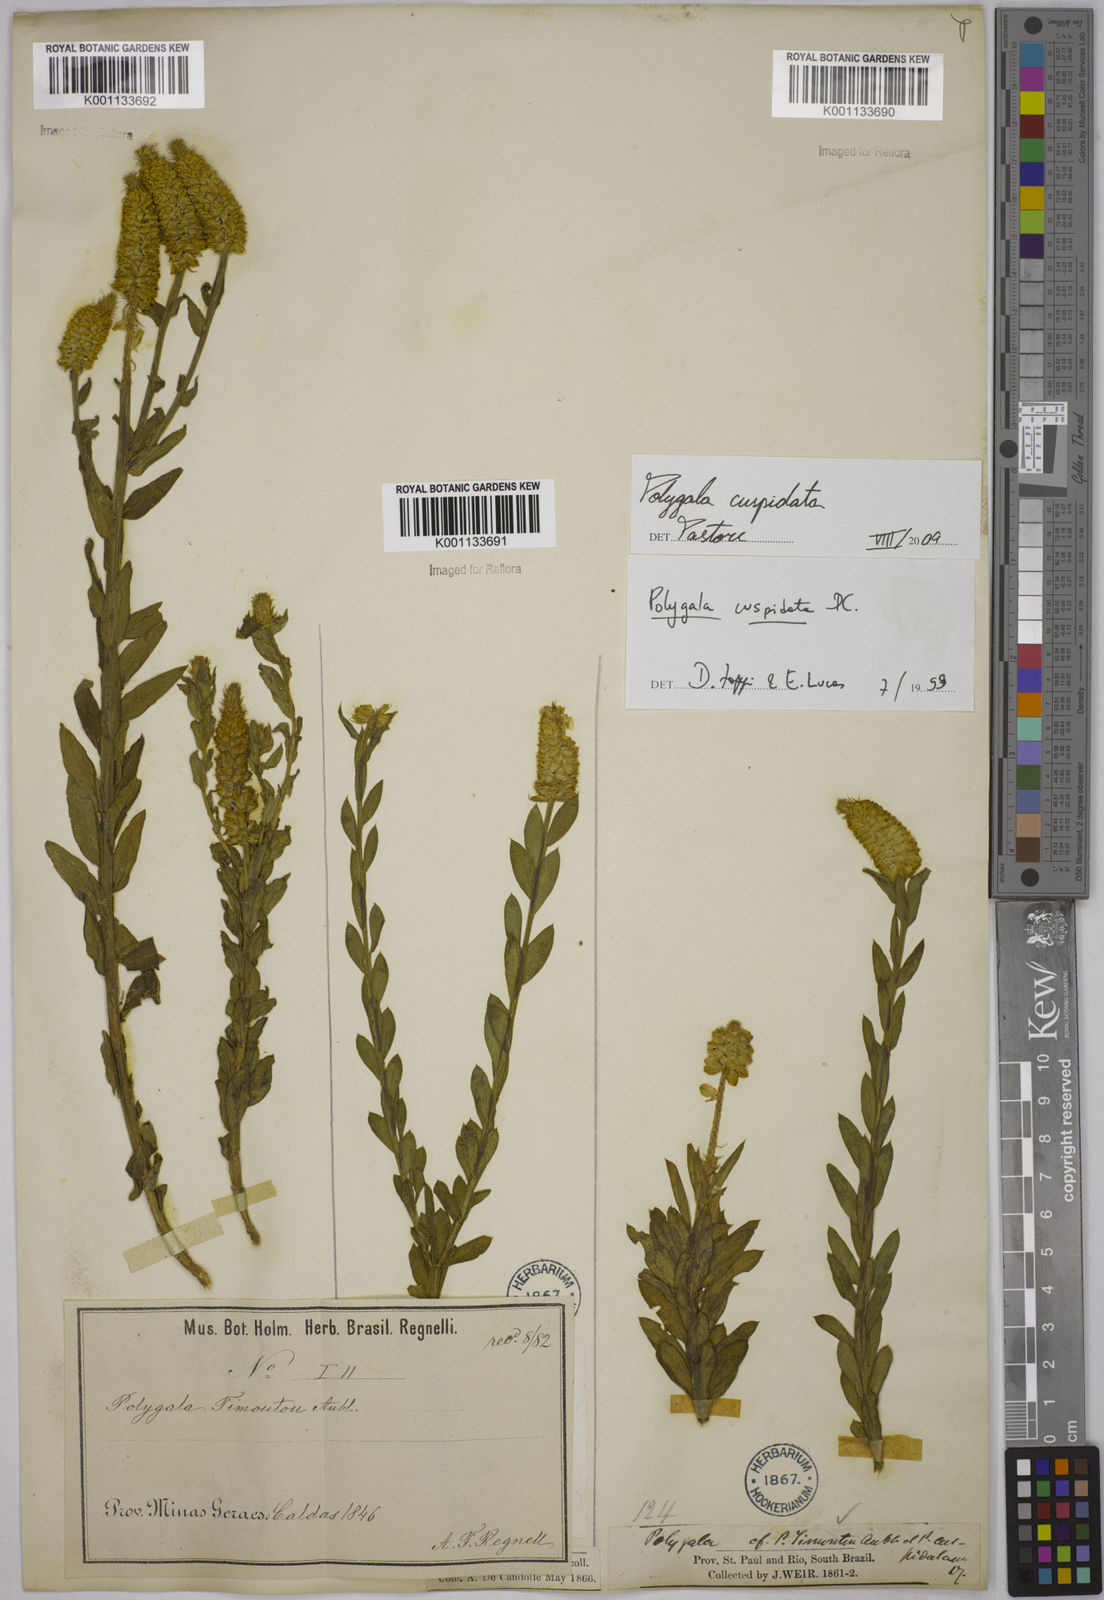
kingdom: Plantae
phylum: Tracheophyta
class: Magnoliopsida
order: Fabales
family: Polygalaceae
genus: Polygala
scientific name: Polygala cuspidata
